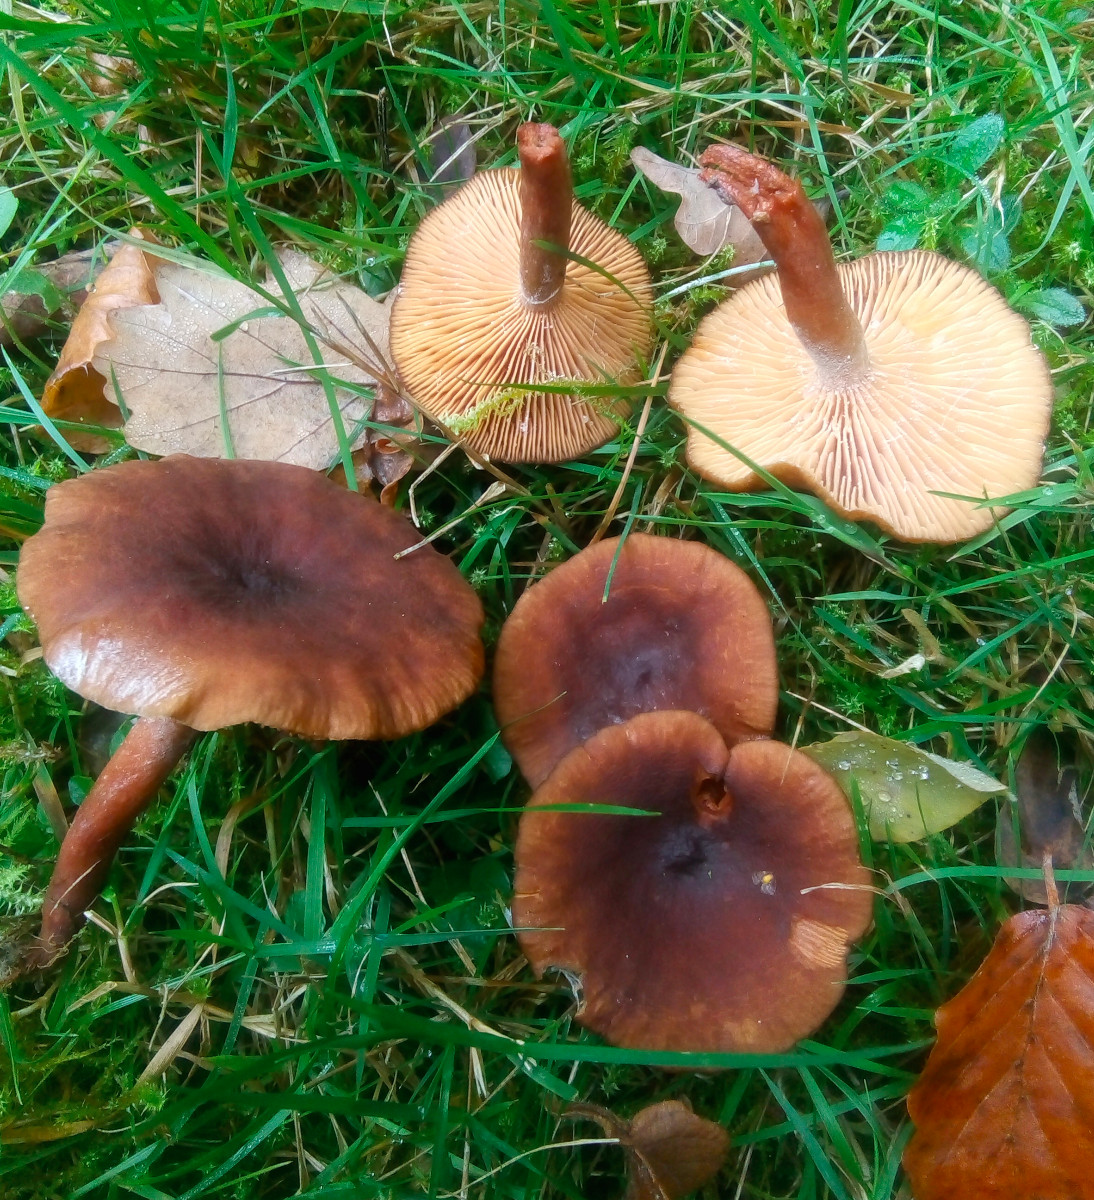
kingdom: Fungi
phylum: Basidiomycota
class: Agaricomycetes
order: Russulales
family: Russulaceae
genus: Lactarius
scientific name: Lactarius serifluus
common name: tæge-mælkehat
